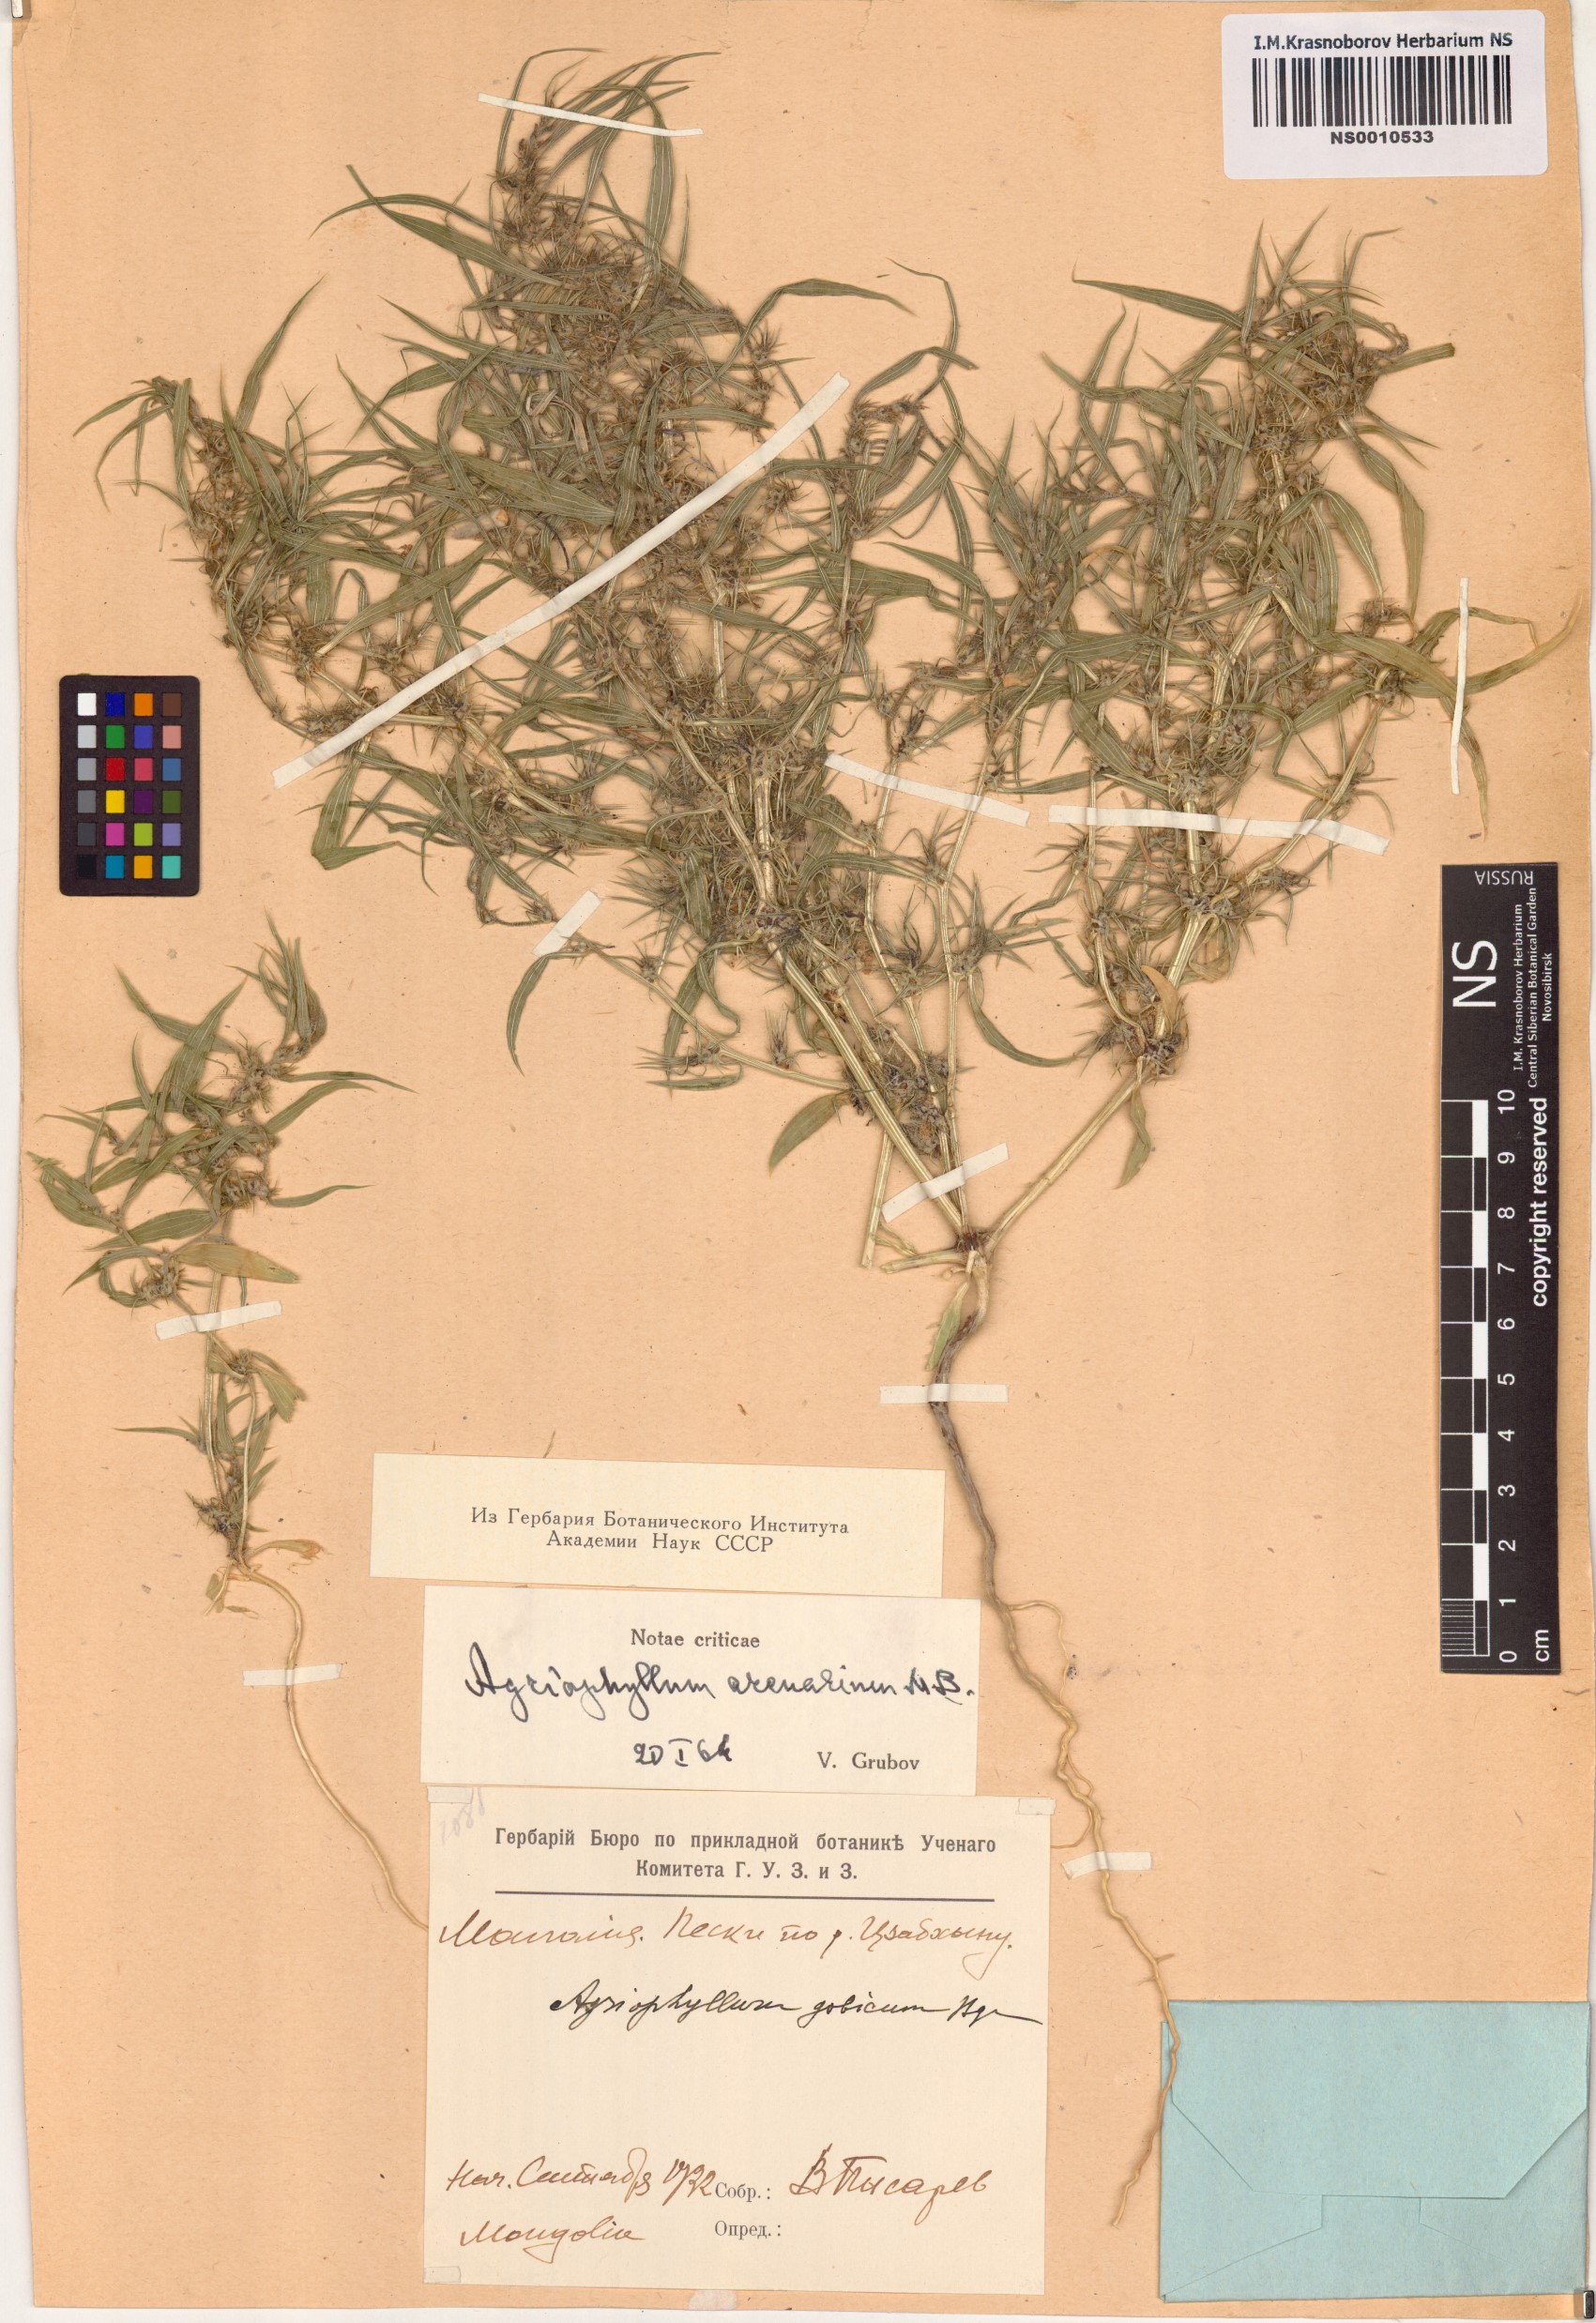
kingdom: Plantae
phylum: Tracheophyta
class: Magnoliopsida
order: Caryophyllales
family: Amaranthaceae
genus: Agriophyllum
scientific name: Agriophyllum pungens
